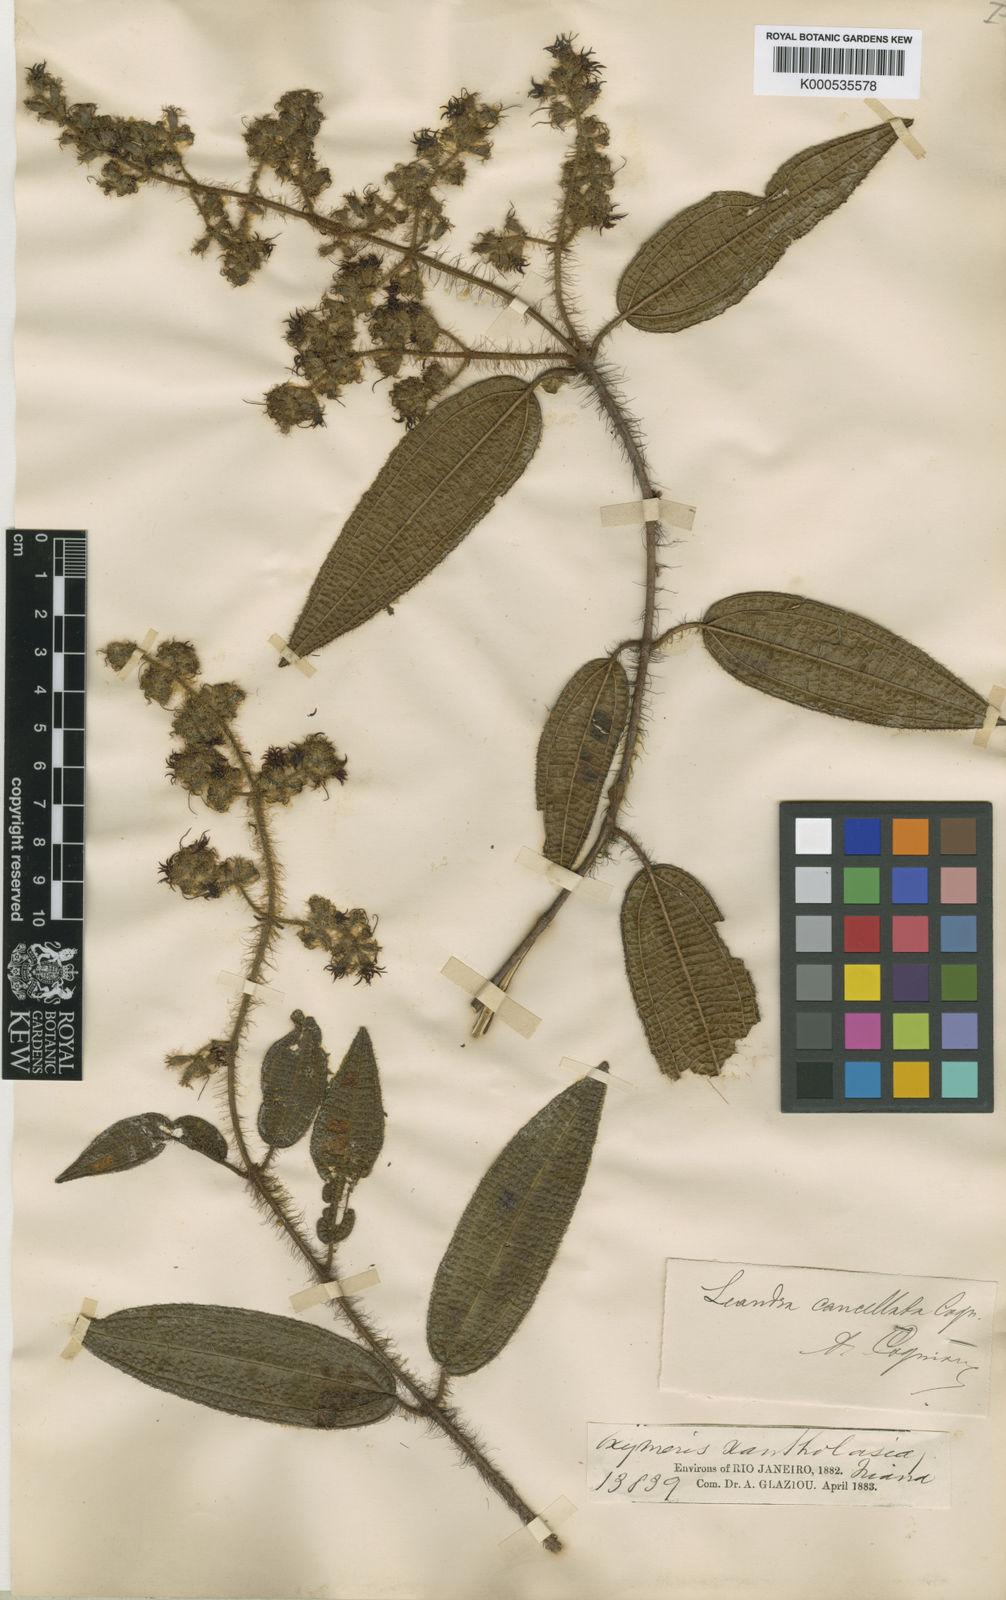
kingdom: Plantae
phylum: Tracheophyta
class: Magnoliopsida
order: Myrtales
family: Melastomataceae
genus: Miconia
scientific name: Miconia
